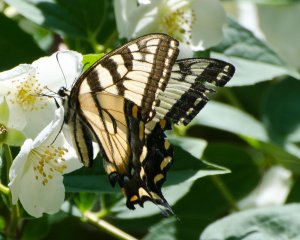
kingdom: Animalia
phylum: Arthropoda
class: Insecta
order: Lepidoptera
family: Papilionidae
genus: Pterourus
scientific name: Pterourus canadensis
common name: Canadian Tiger Swallowtail
